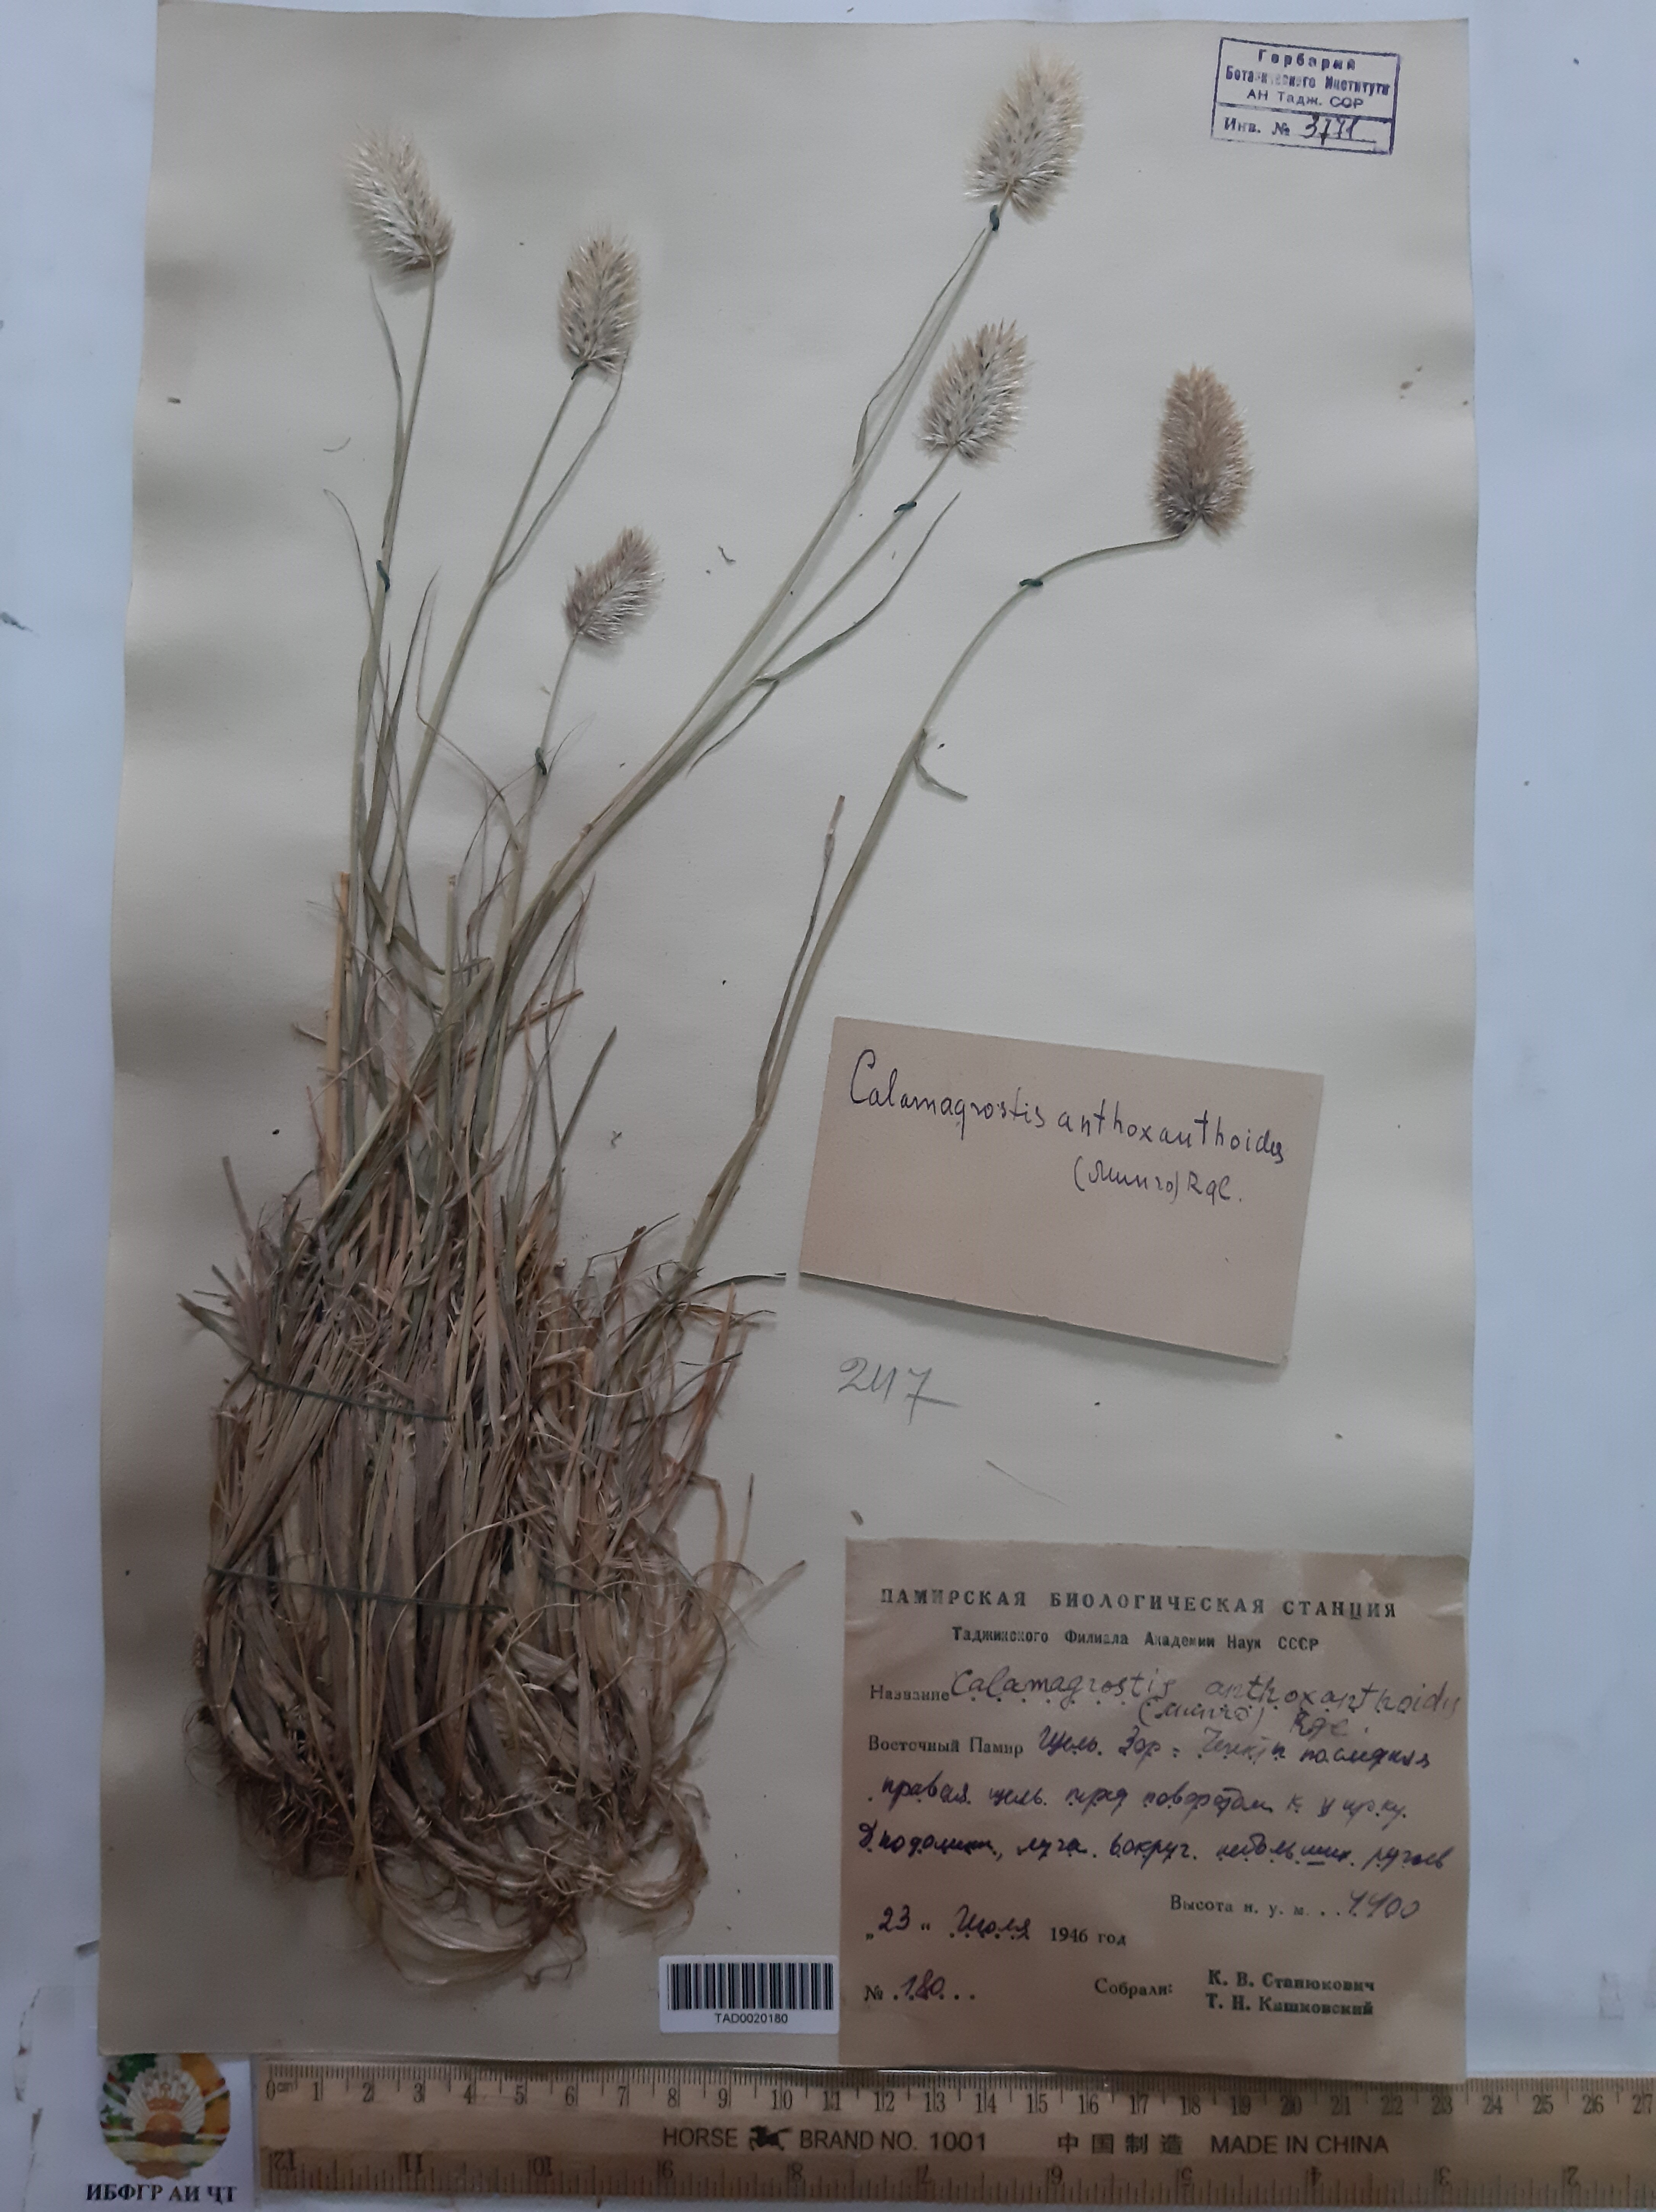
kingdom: Plantae
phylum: Tracheophyta
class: Liliopsida
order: Poales
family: Poaceae
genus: Calamagrostis
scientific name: Calamagrostis anthoxanthoides
